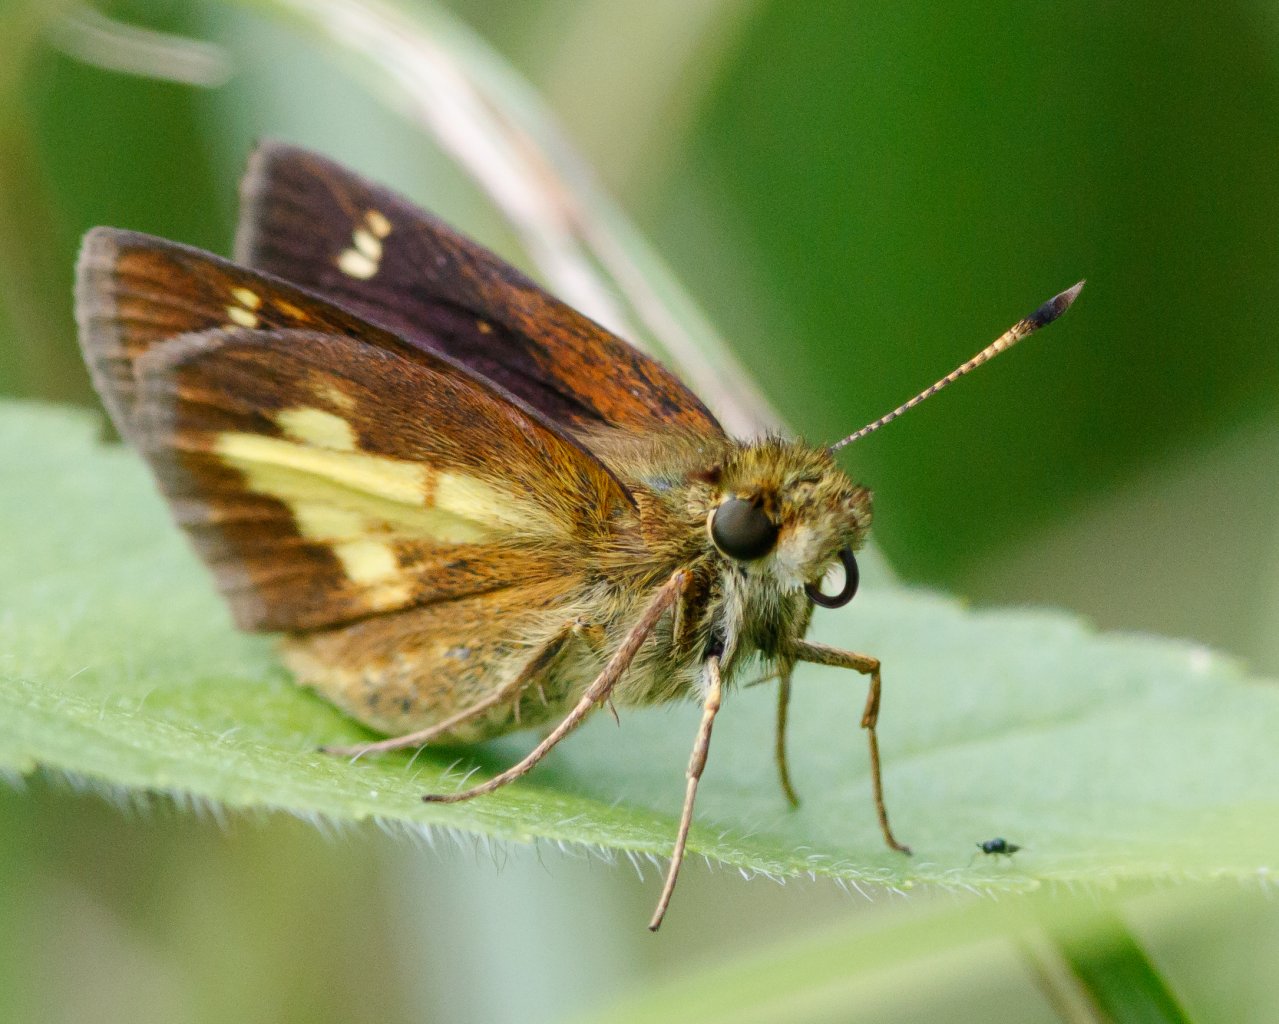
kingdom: Animalia
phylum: Arthropoda
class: Insecta
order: Lepidoptera
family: Hesperiidae
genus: Poanes
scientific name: Poanes massasoit
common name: Mulberry Wing
